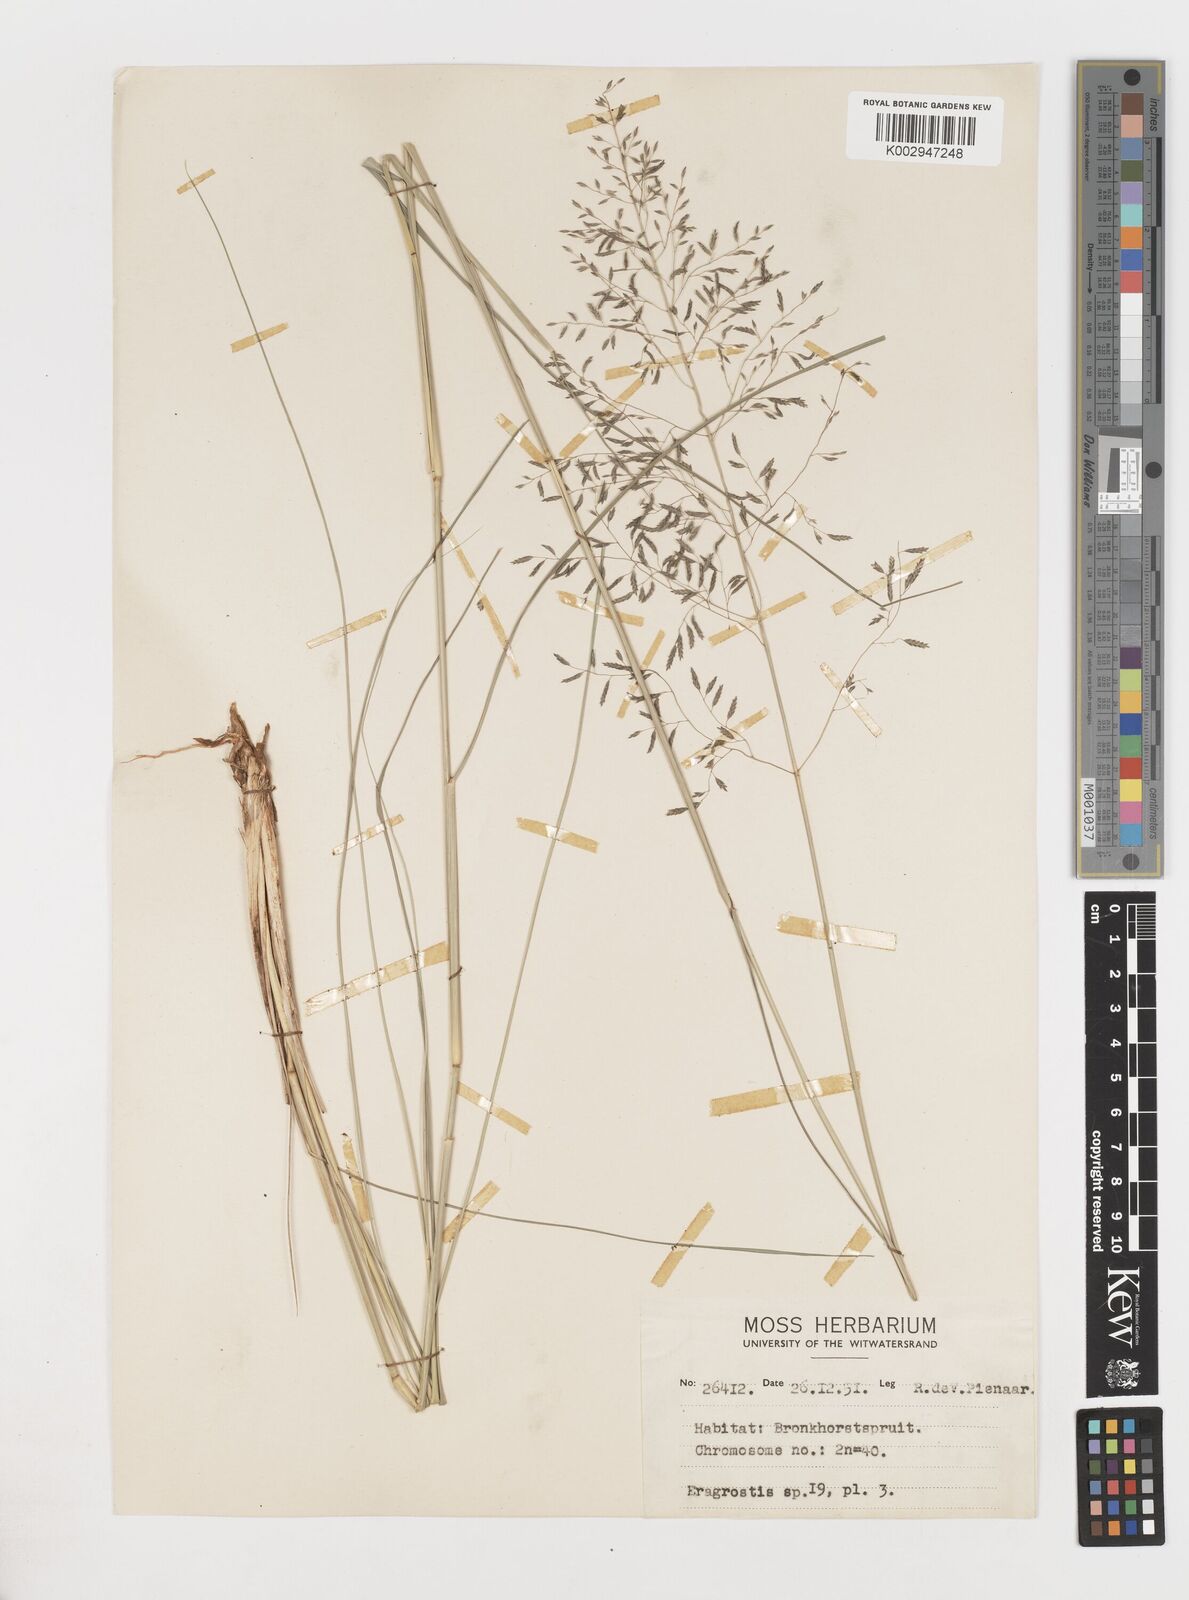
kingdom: Plantae
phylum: Tracheophyta
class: Liliopsida
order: Poales
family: Poaceae
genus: Eragrostis
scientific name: Eragrostis
